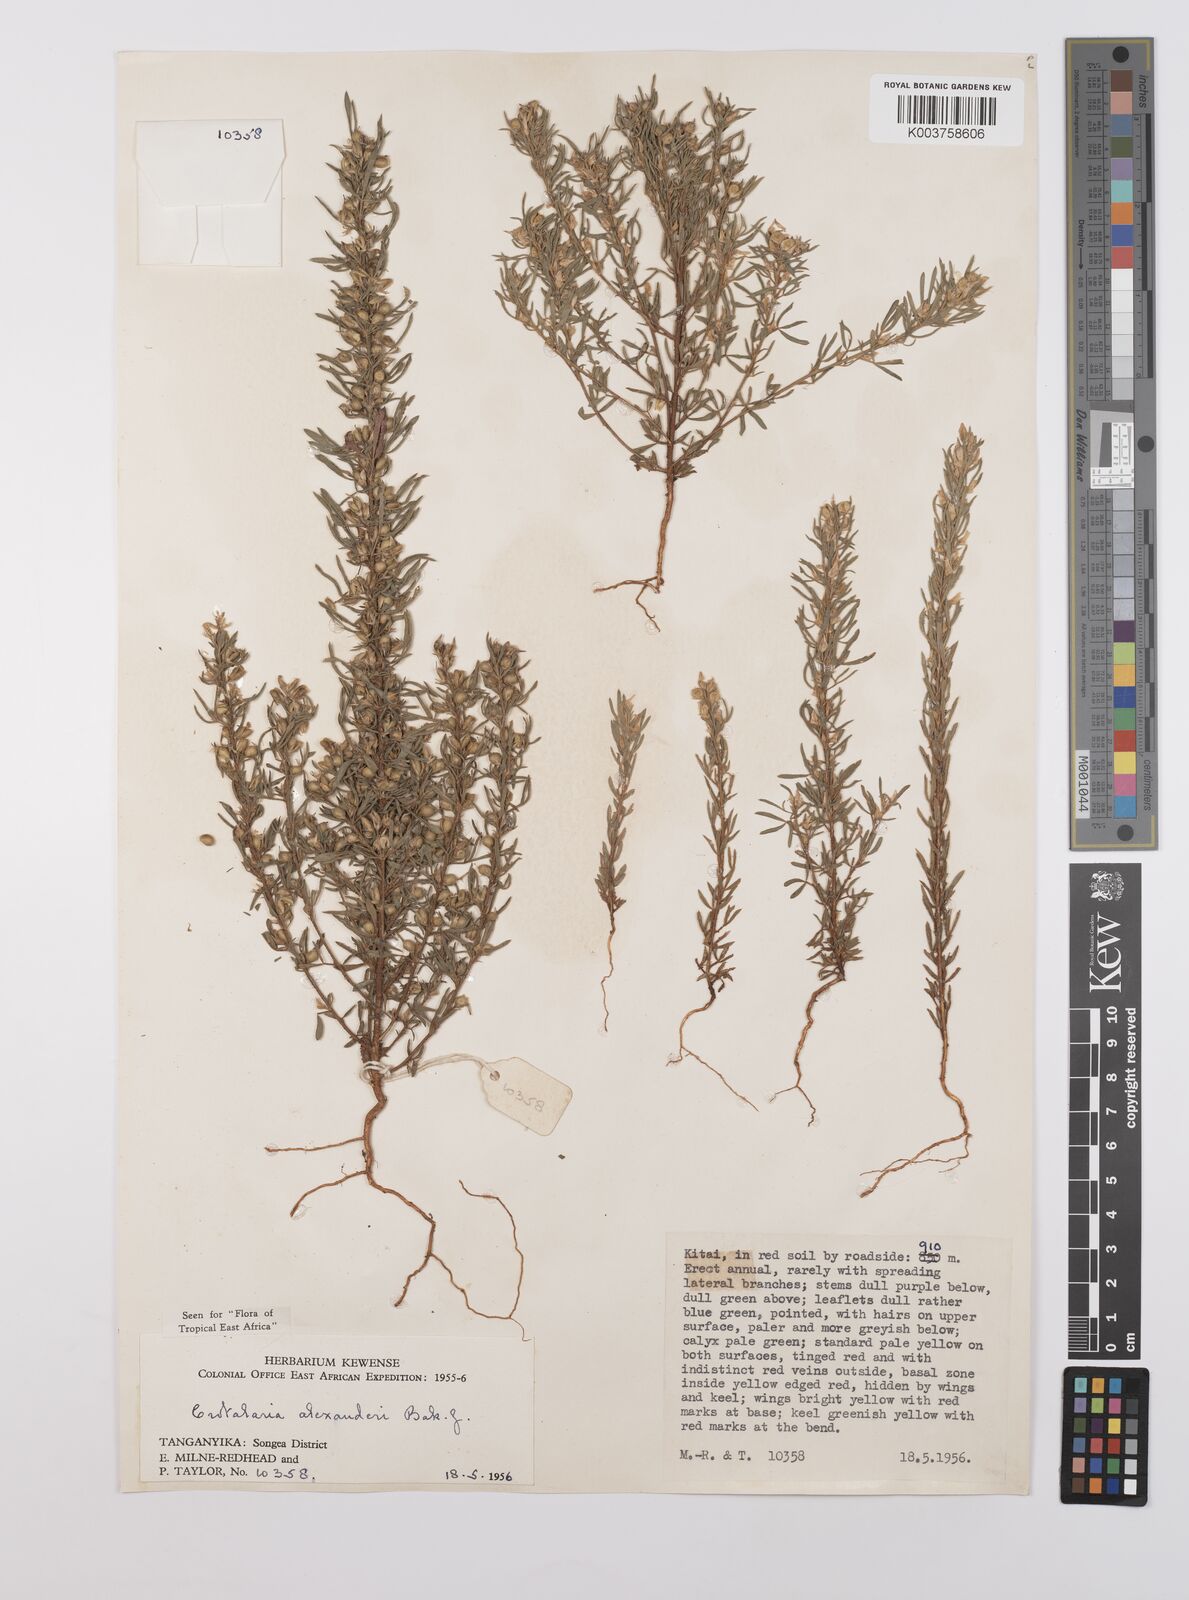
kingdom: Plantae
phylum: Tracheophyta
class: Magnoliopsida
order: Fabales
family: Fabaceae
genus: Crotalaria
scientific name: Crotalaria alexandri
